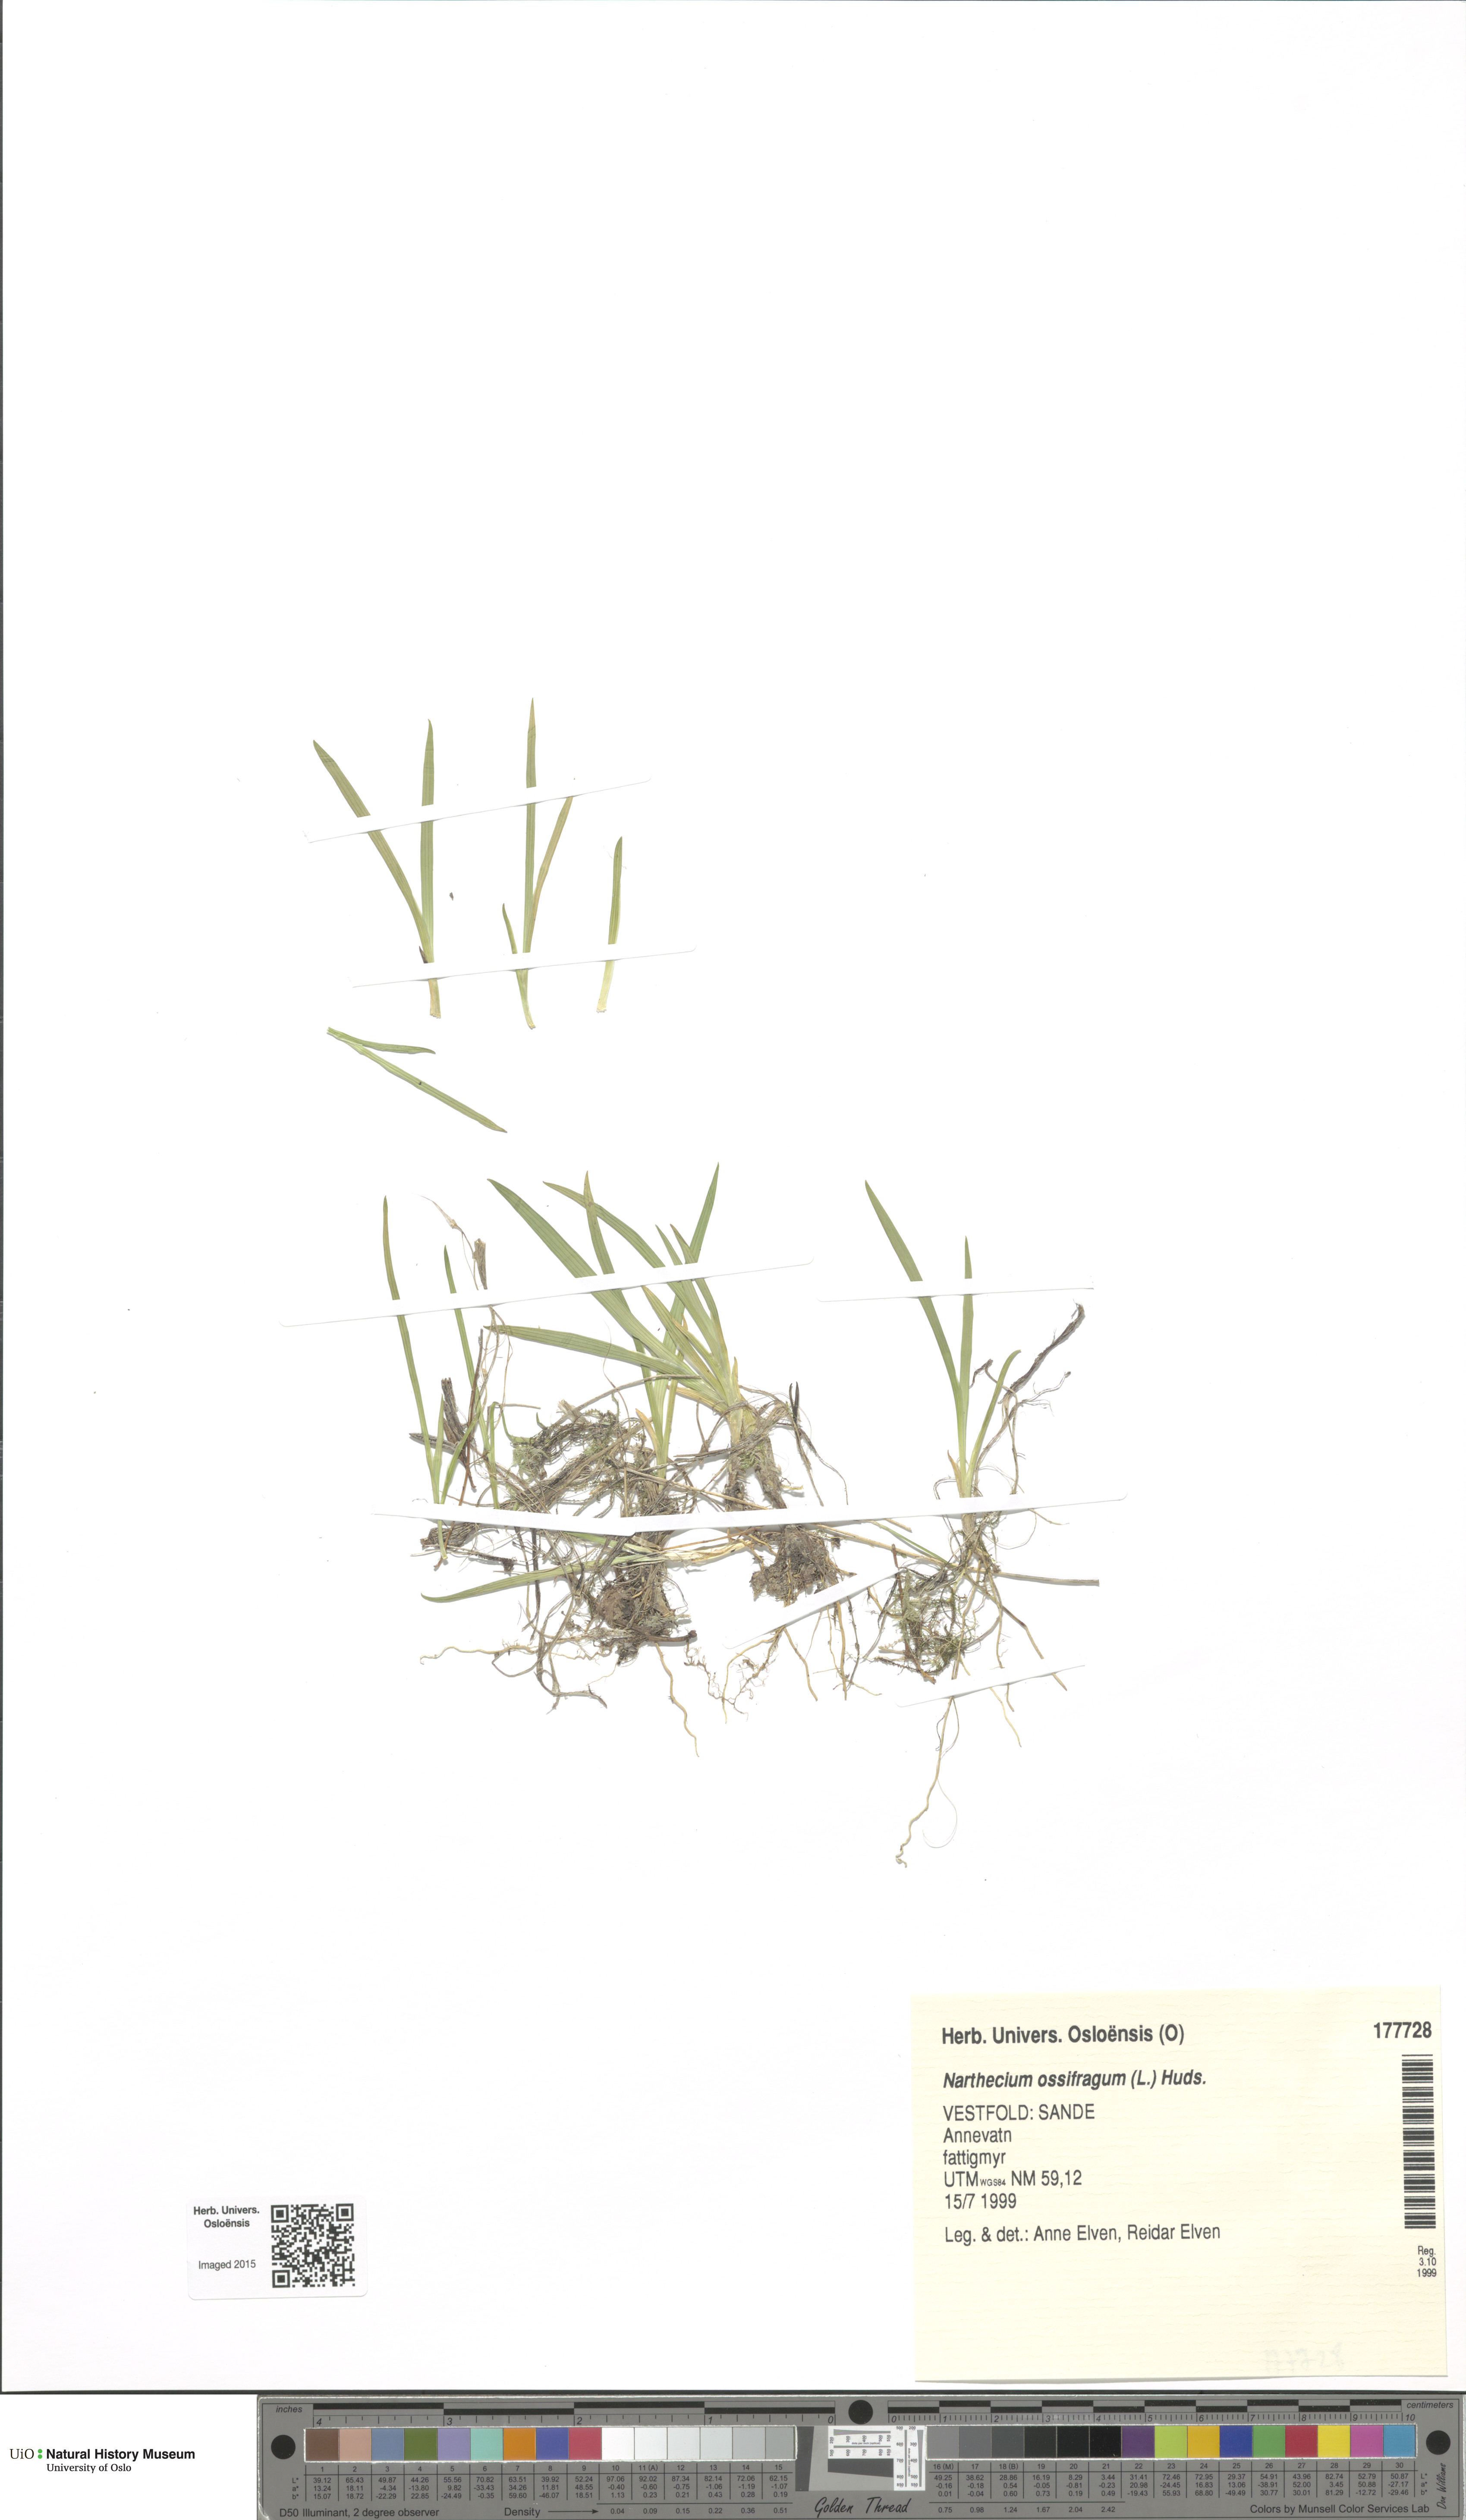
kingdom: Plantae
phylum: Tracheophyta
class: Liliopsida
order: Dioscoreales
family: Nartheciaceae
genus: Narthecium
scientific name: Narthecium ossifragum
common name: Bog asphodel
